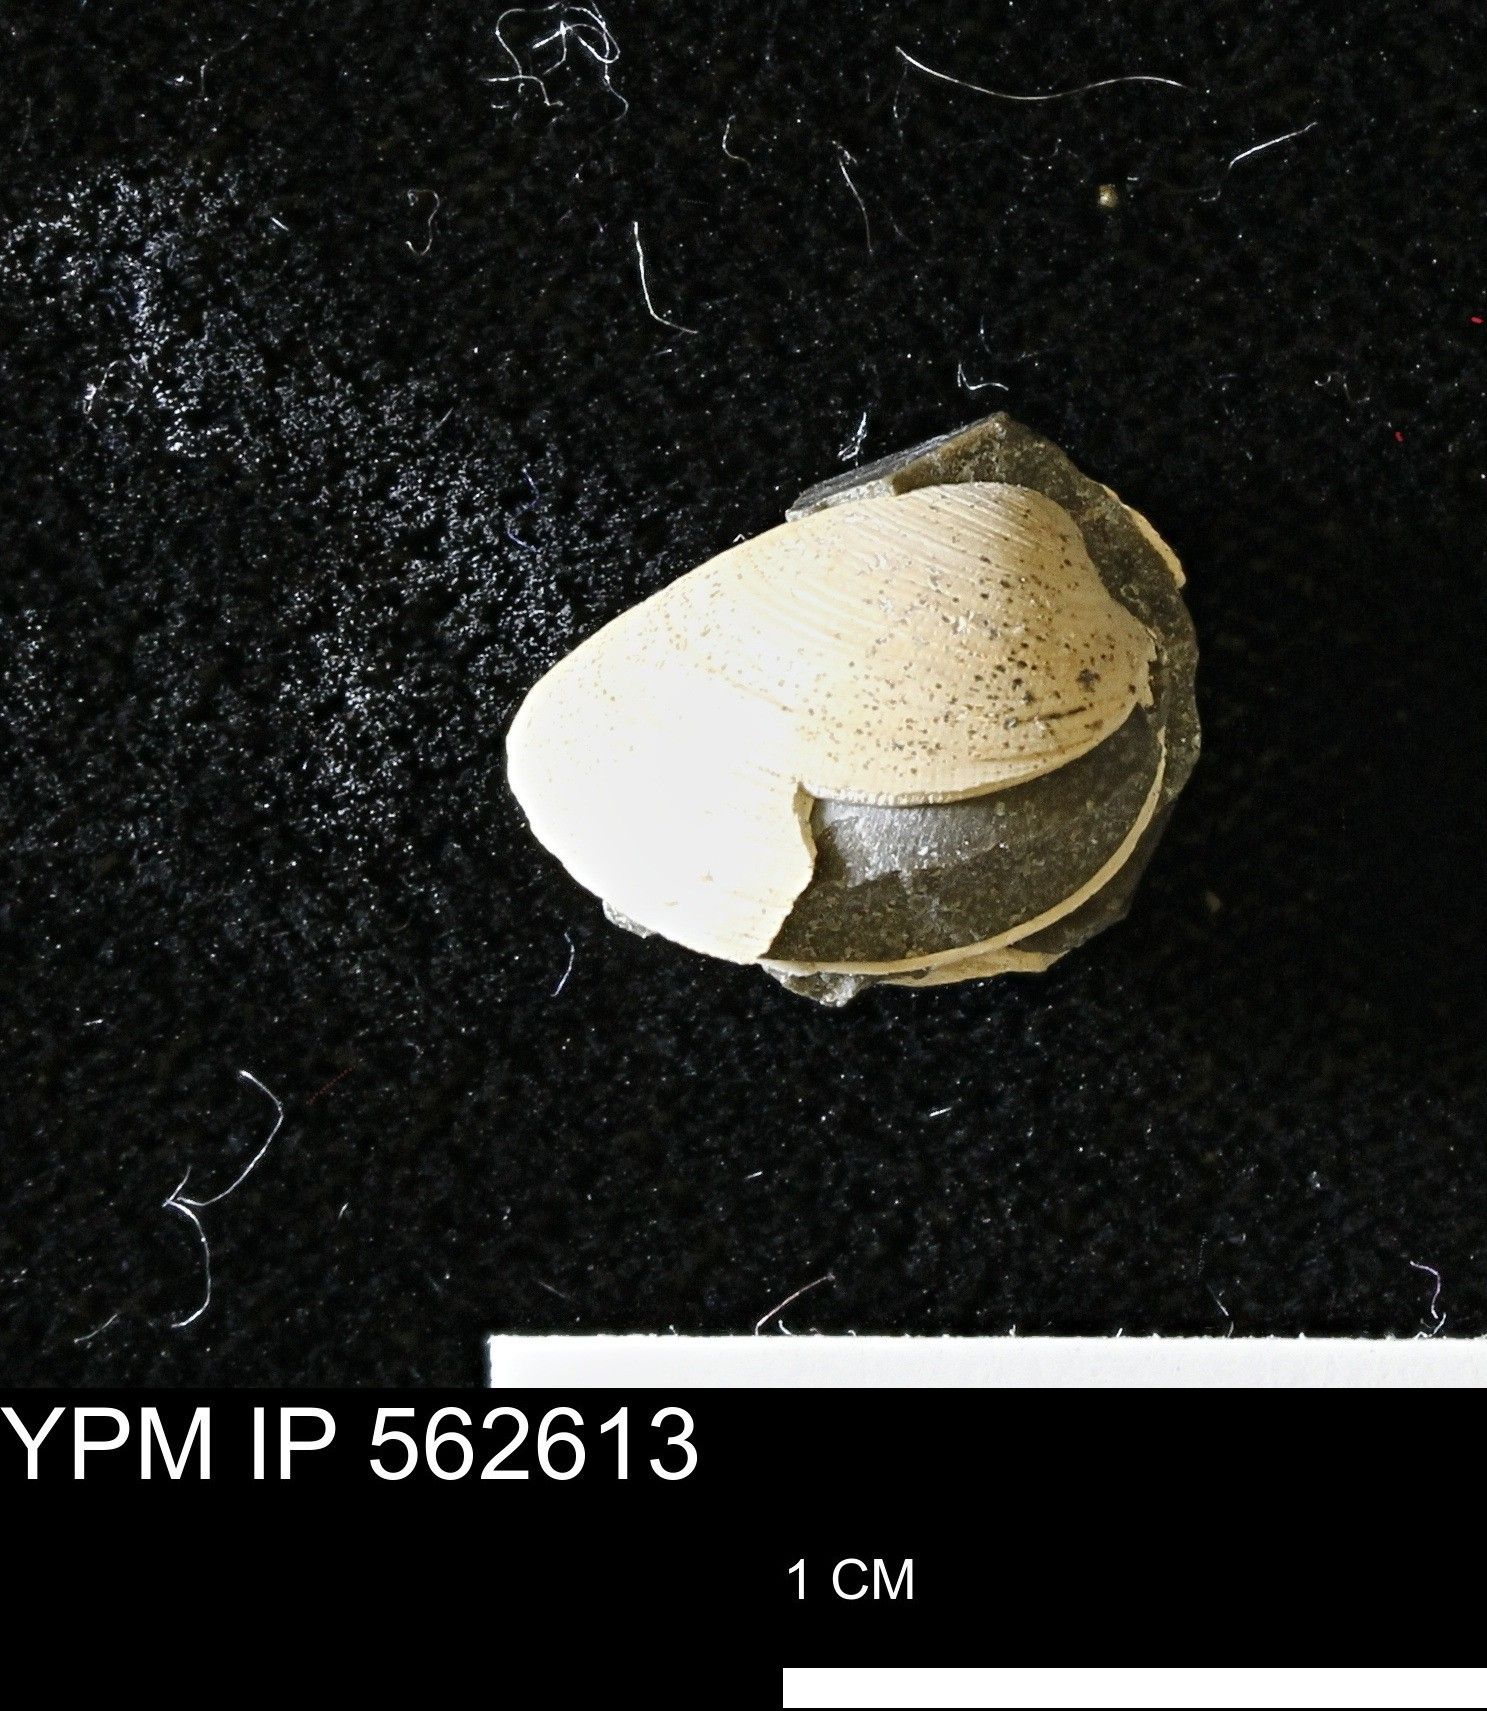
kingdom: Animalia
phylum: Mollusca
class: Bivalvia
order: Arcida
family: Limopsidae
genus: Limopsis
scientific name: Limopsis
